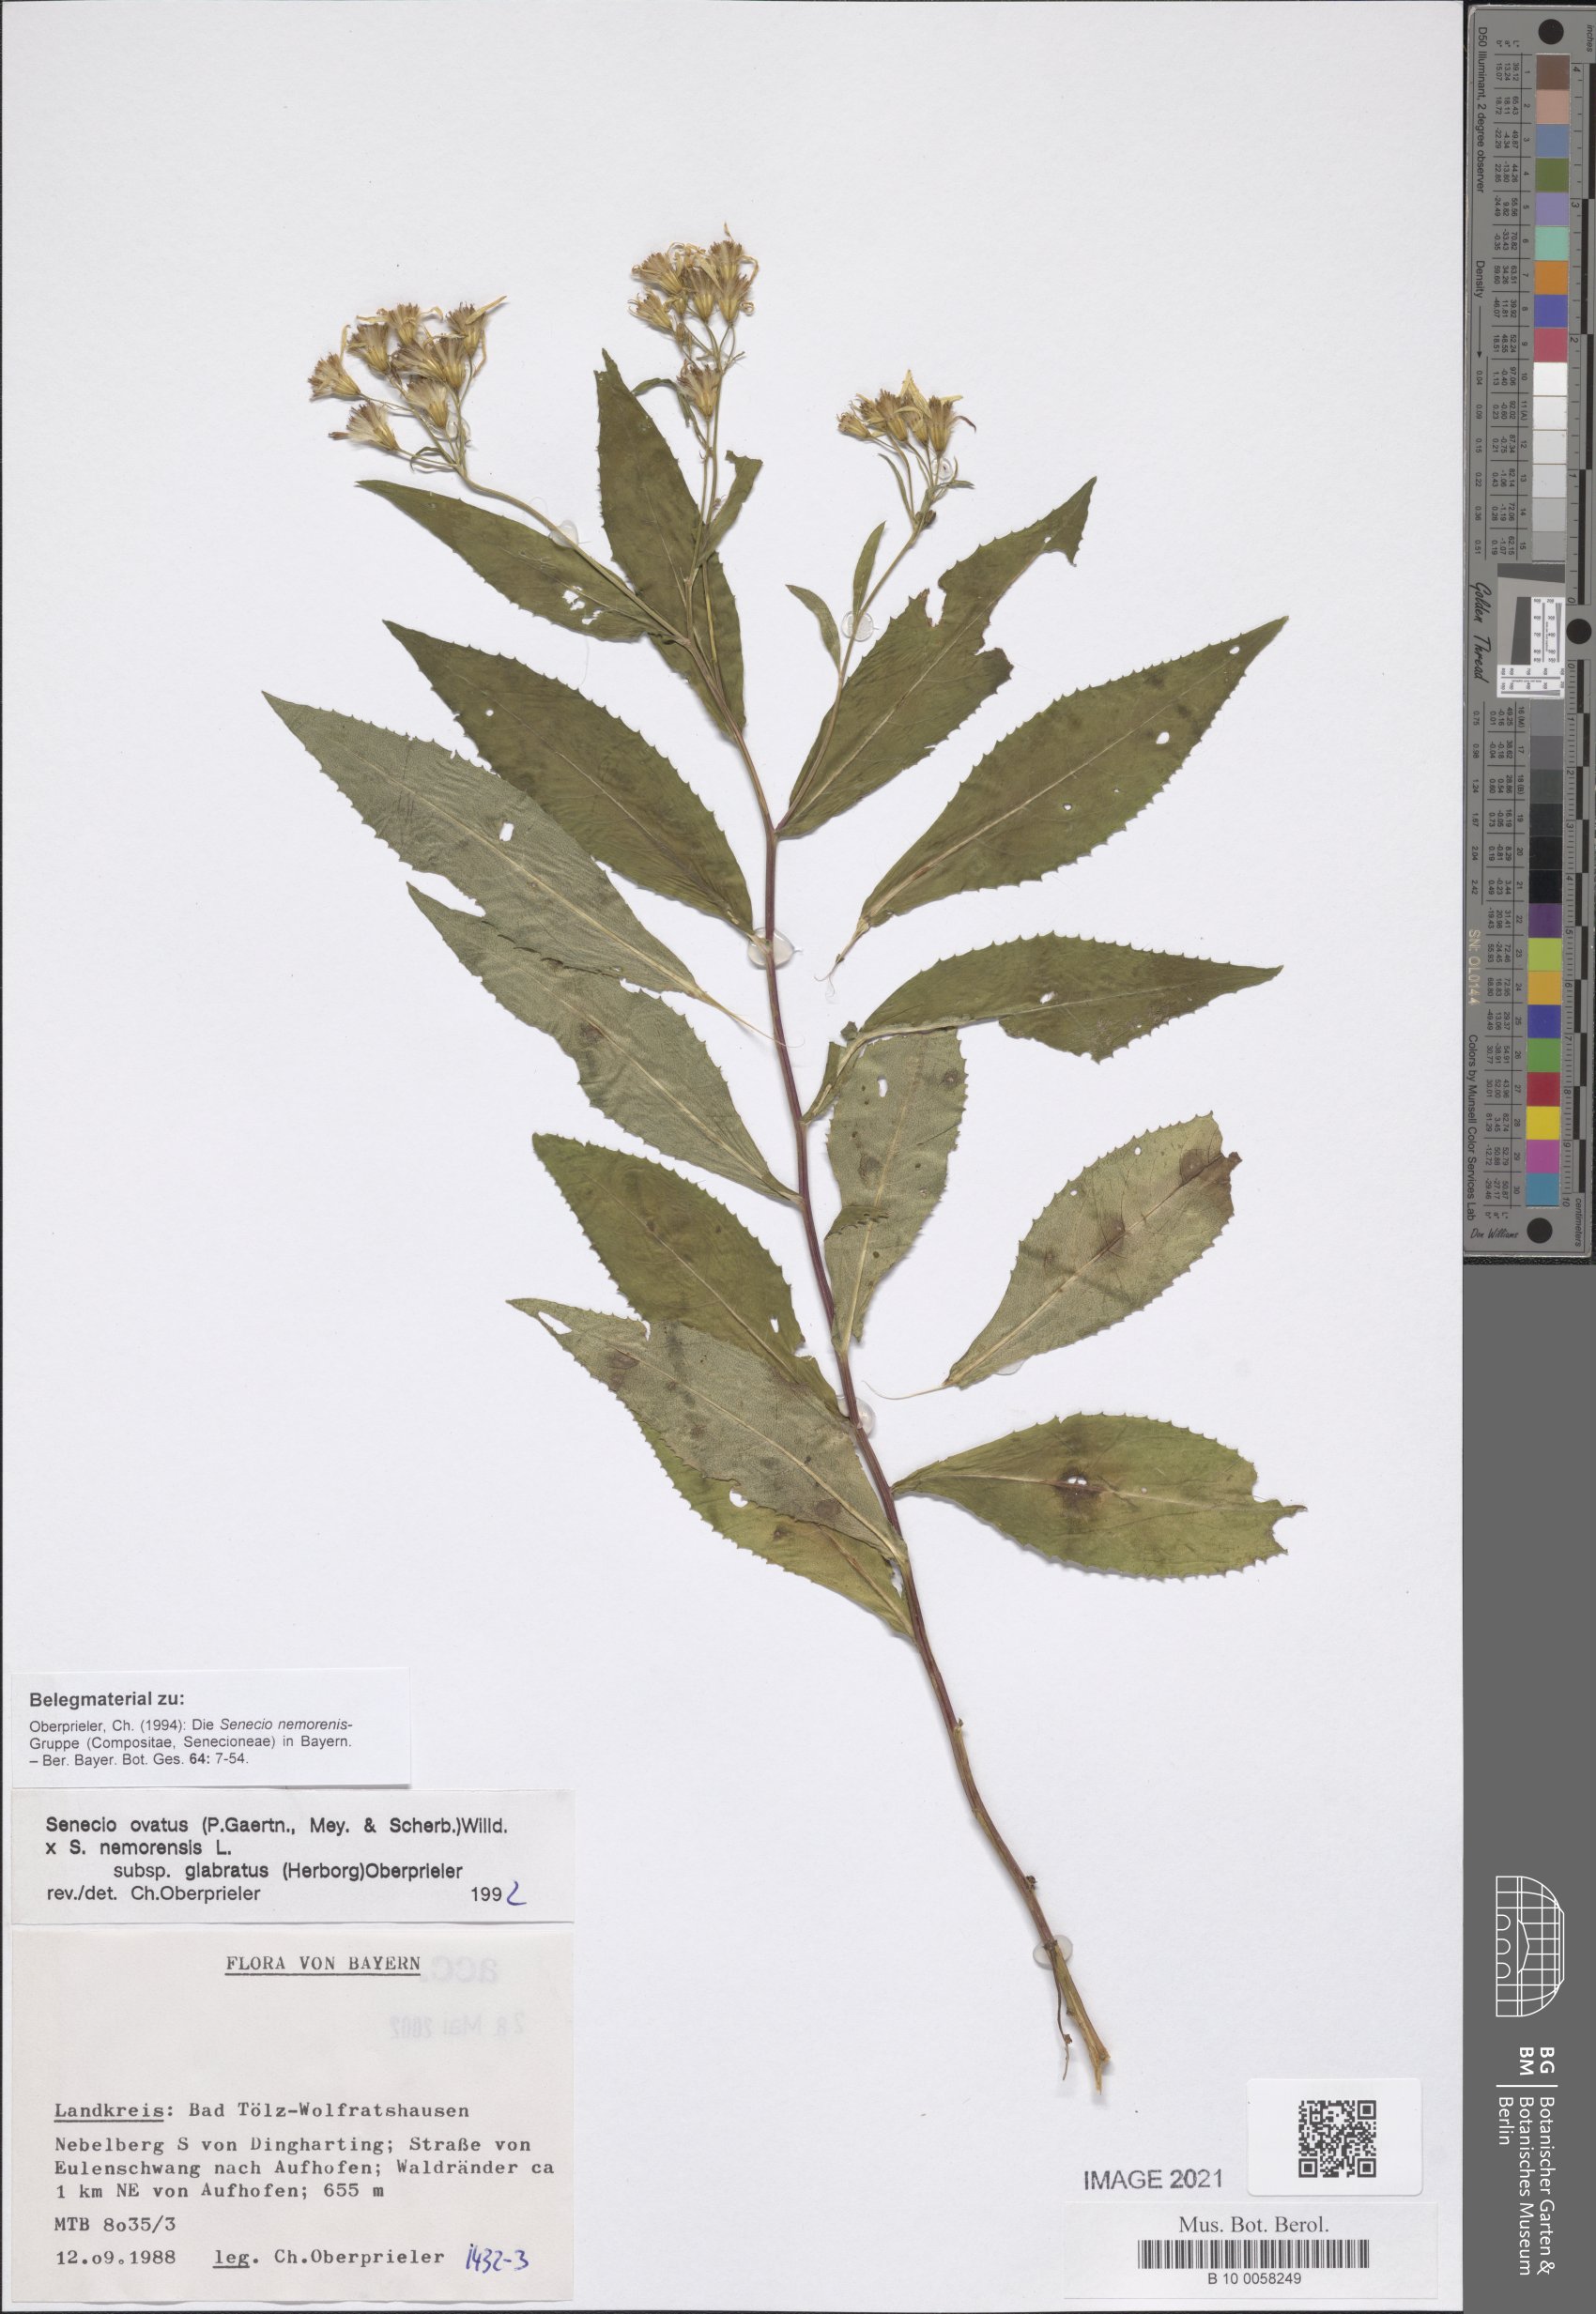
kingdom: Plantae
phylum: Tracheophyta
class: Magnoliopsida
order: Asterales
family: Asteraceae
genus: Senecio
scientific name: Senecio ovatus
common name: Wood ragwort
